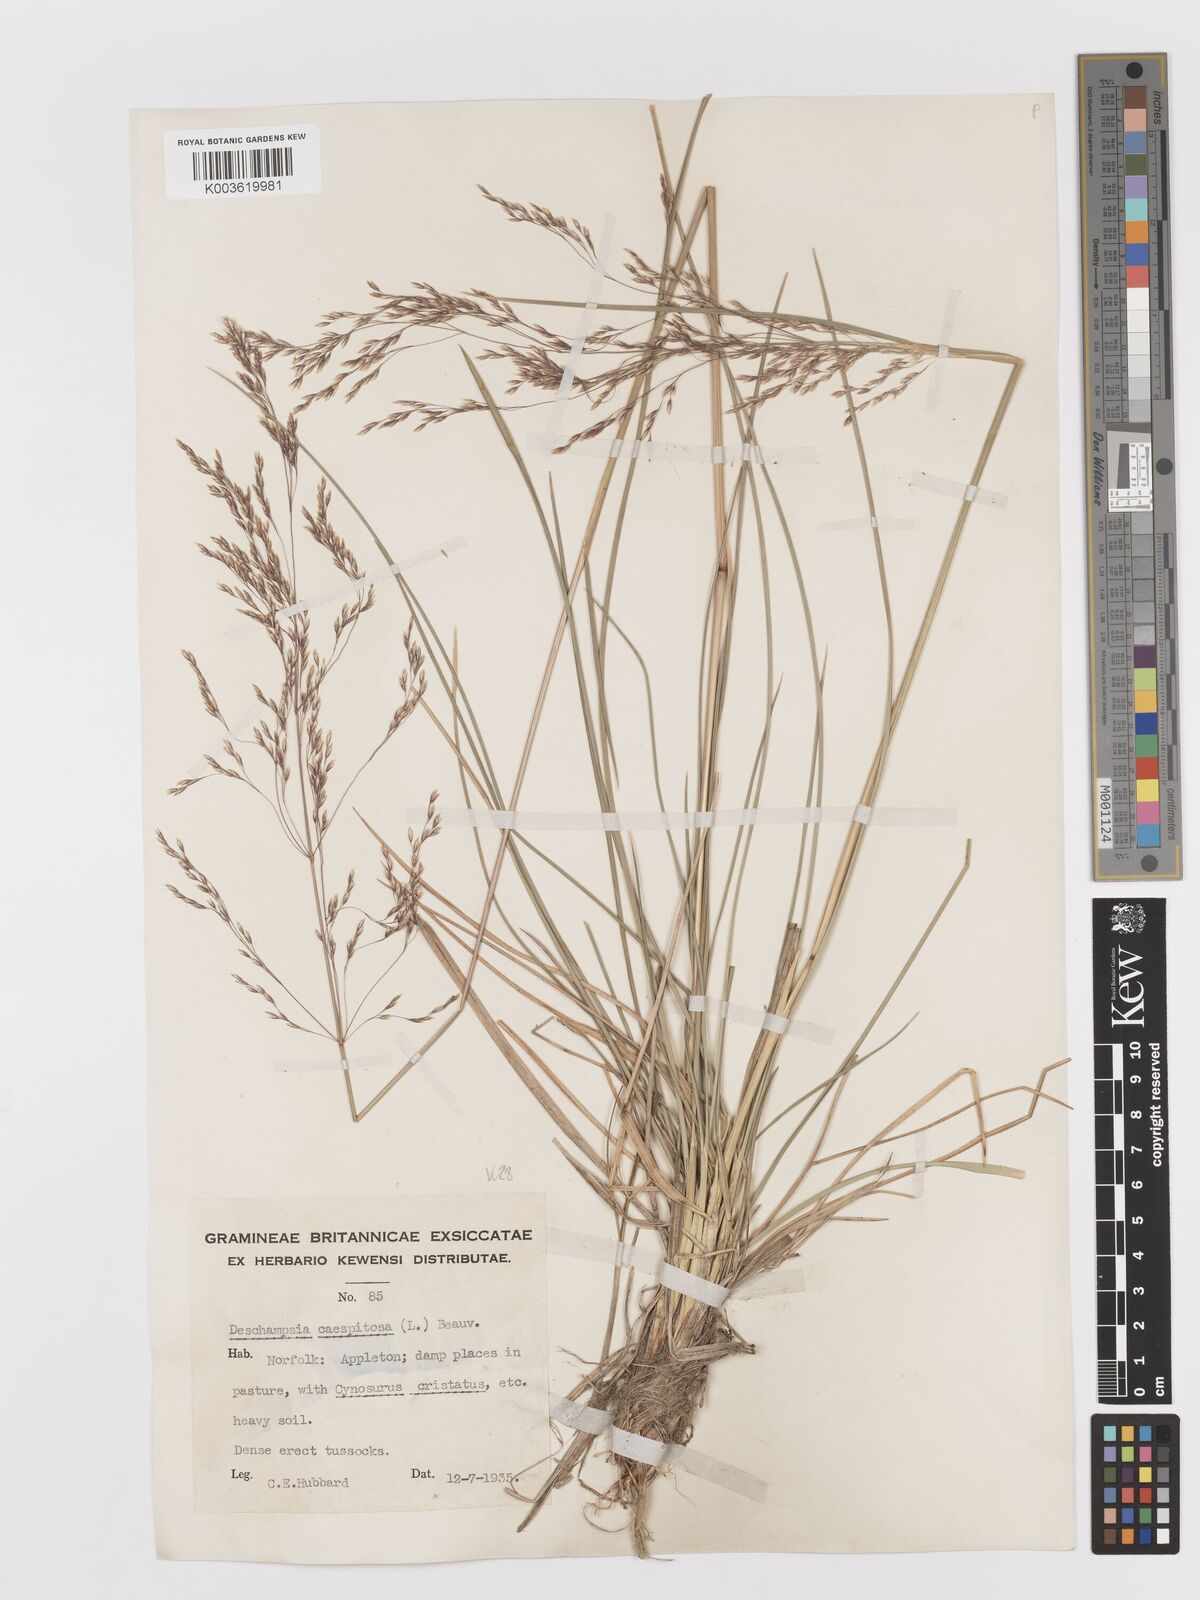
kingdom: Plantae
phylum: Tracheophyta
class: Liliopsida
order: Poales
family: Poaceae
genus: Deschampsia
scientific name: Deschampsia cespitosa
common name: Tufted hair-grass
